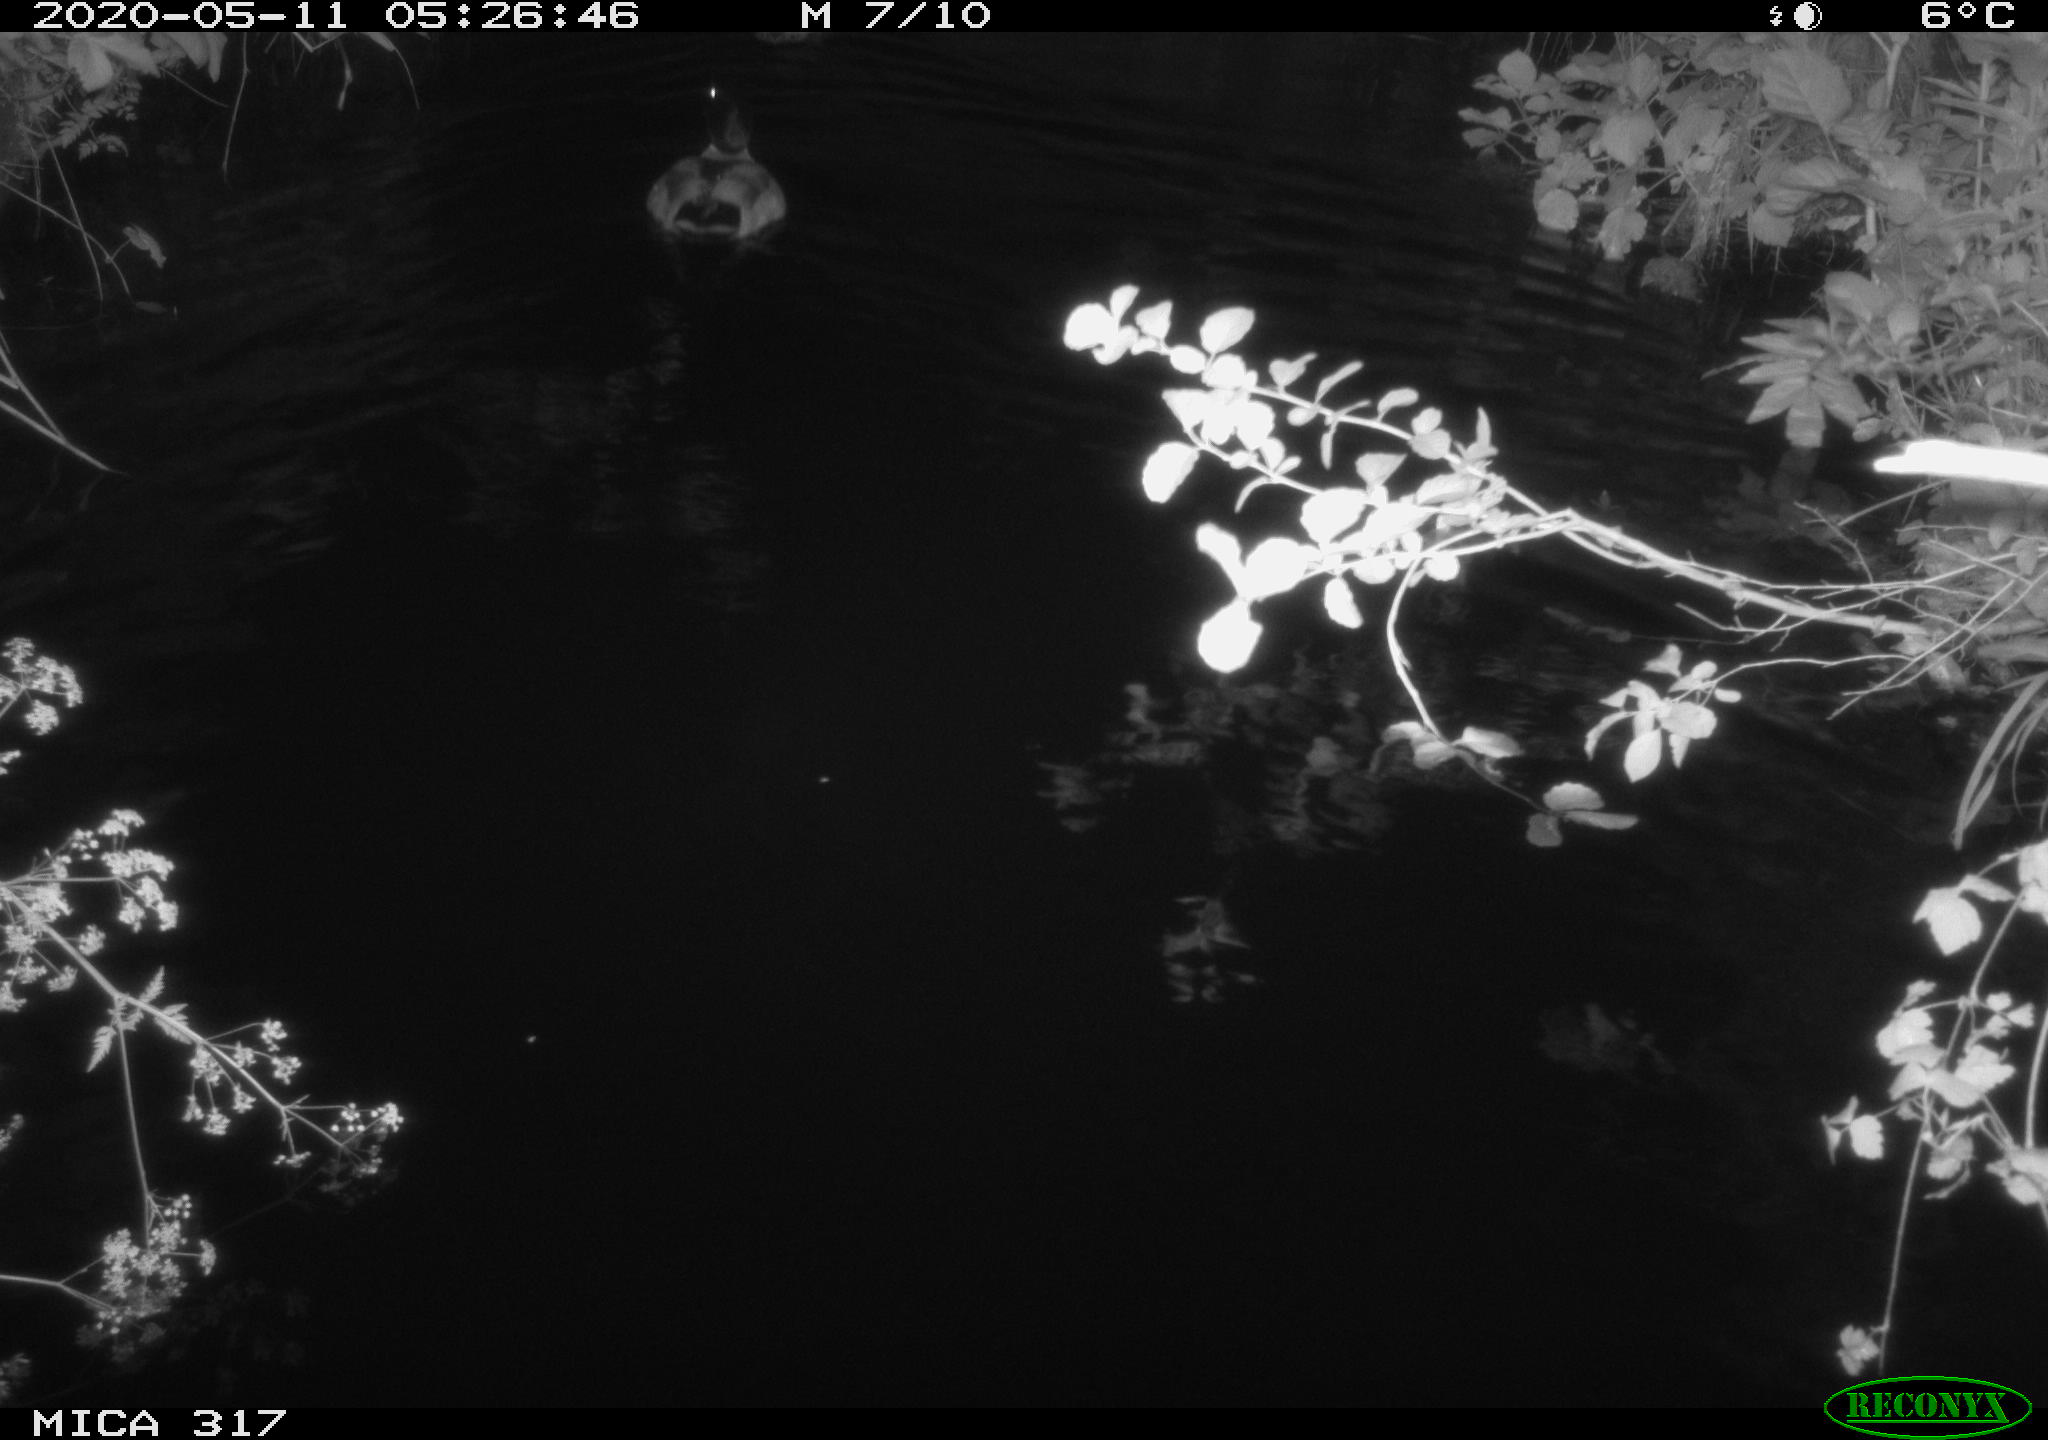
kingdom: Animalia
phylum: Chordata
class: Aves
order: Anseriformes
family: Anatidae
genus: Anas
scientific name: Anas platyrhynchos
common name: Mallard
